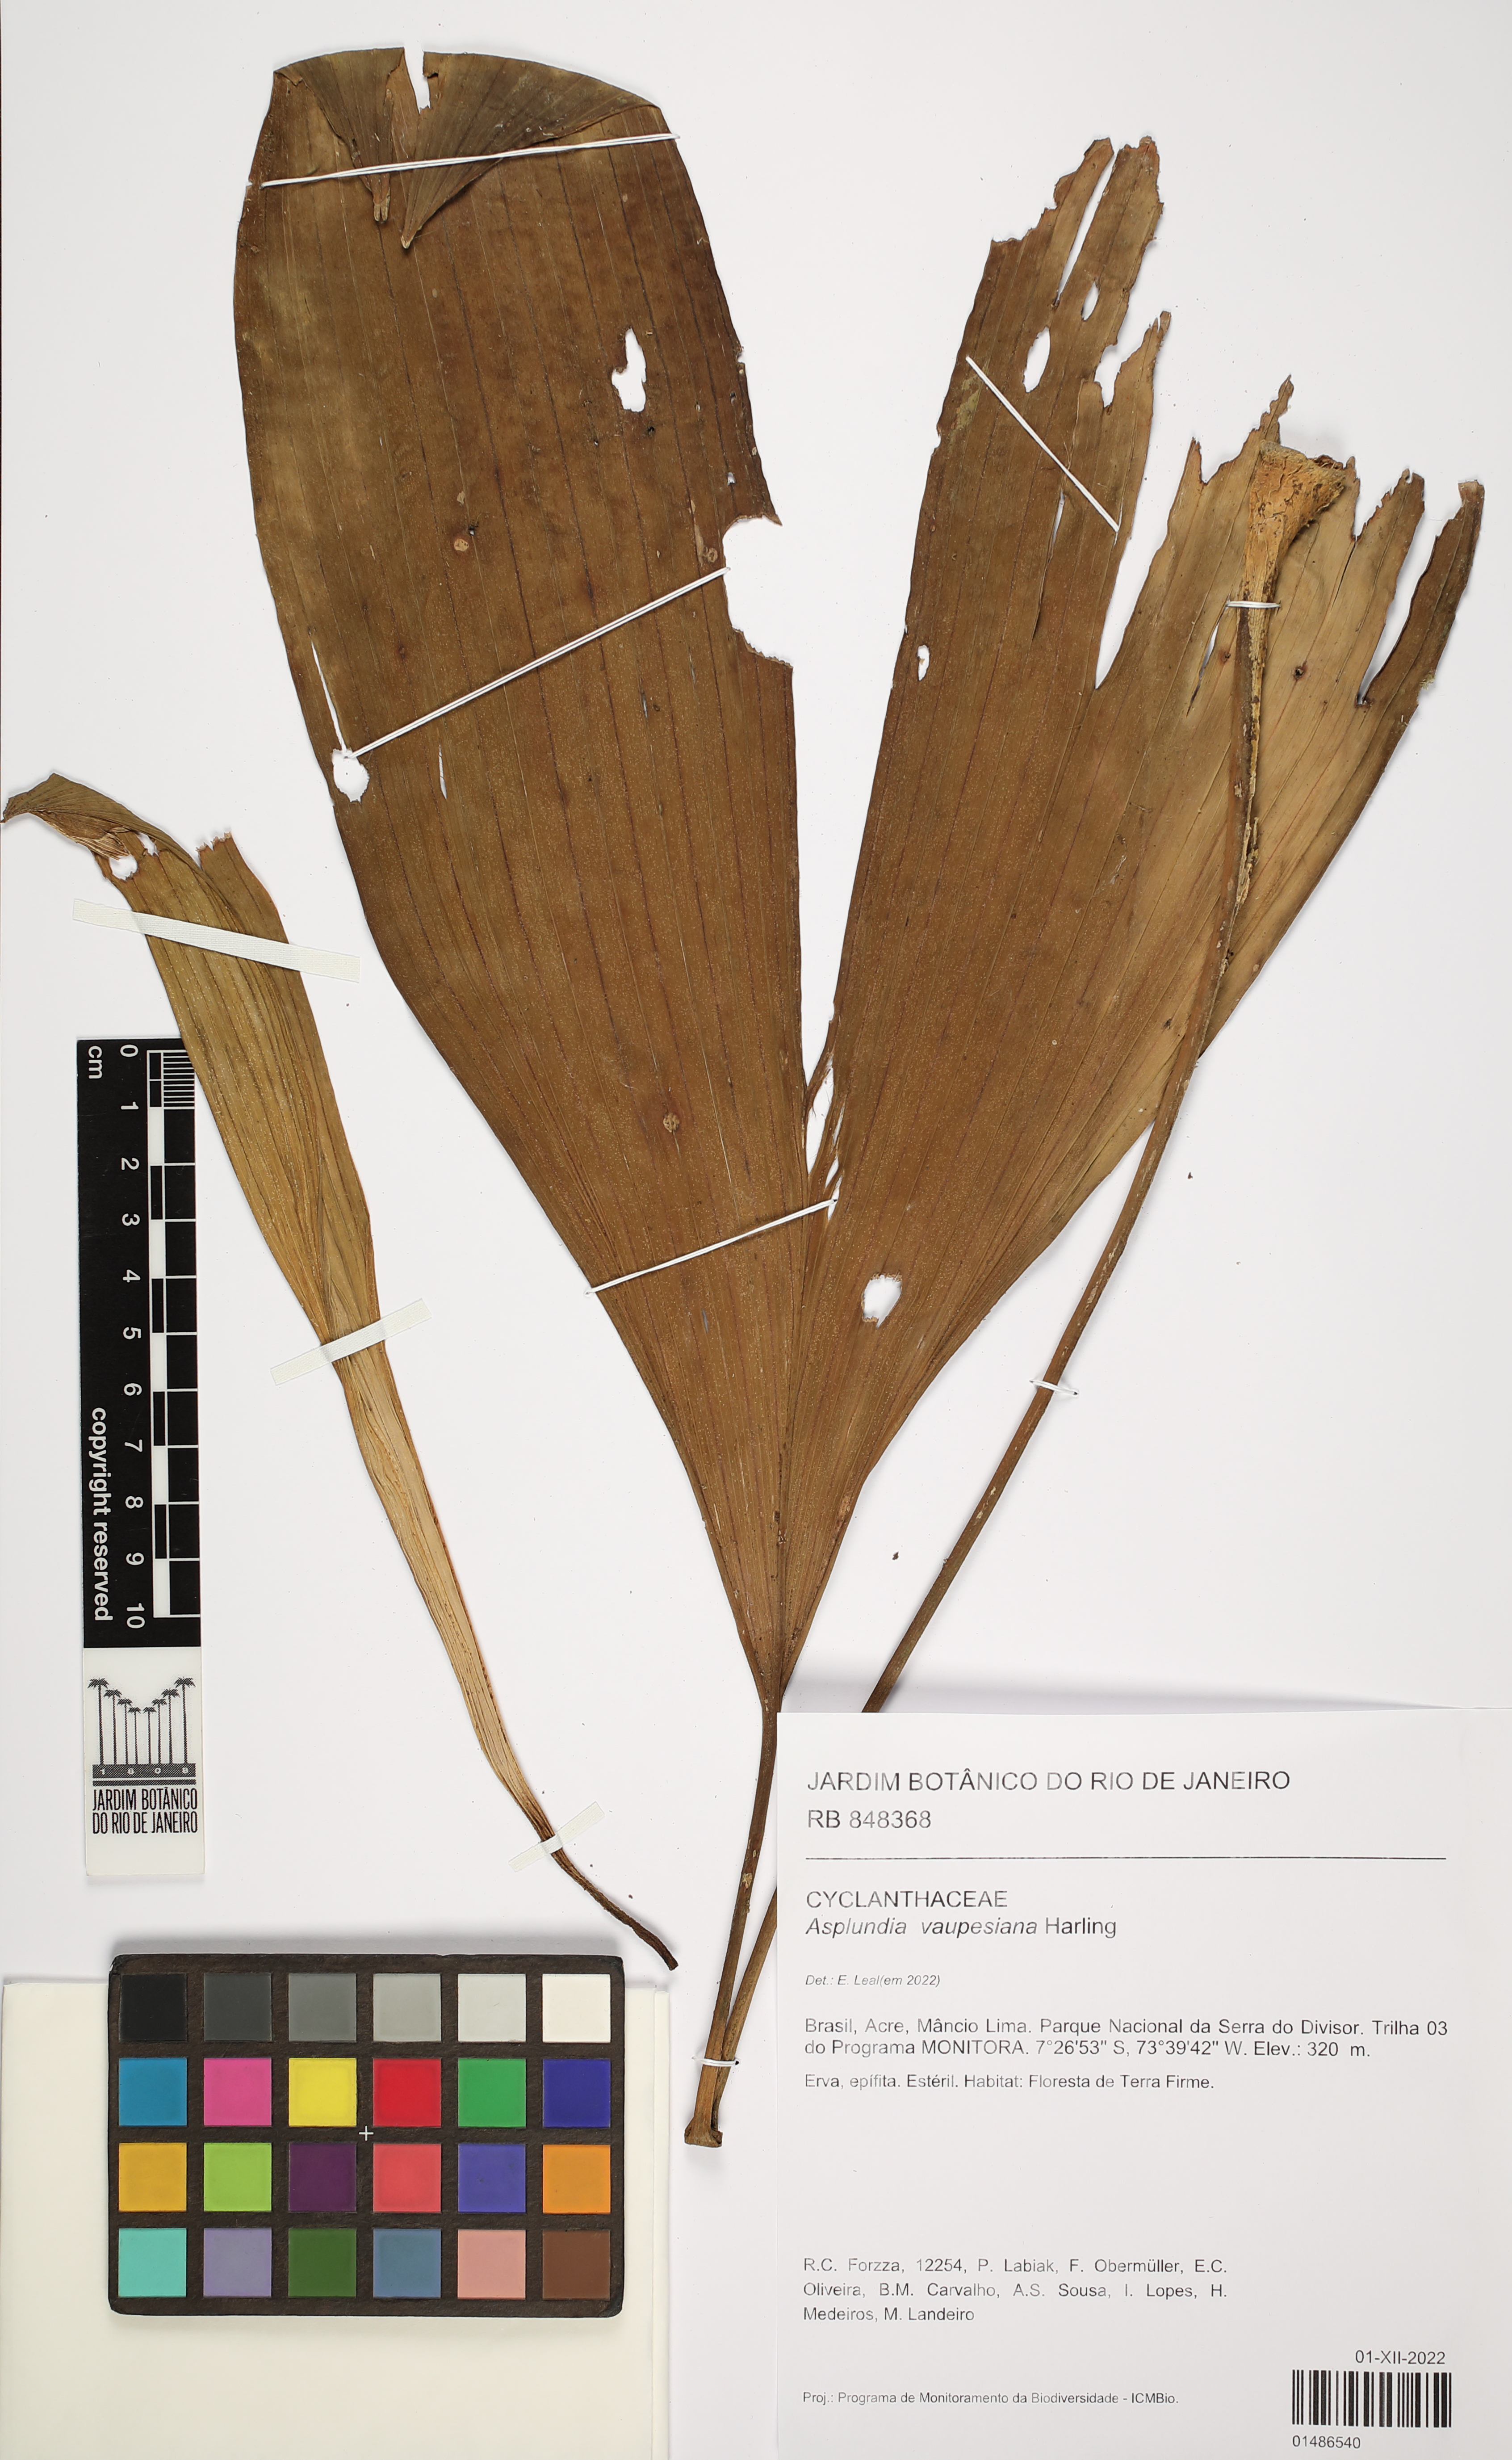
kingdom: Plantae
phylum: Tracheophyta
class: Liliopsida
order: Pandanales
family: Cyclanthaceae
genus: Asplundia
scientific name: Asplundia vaupesiana
